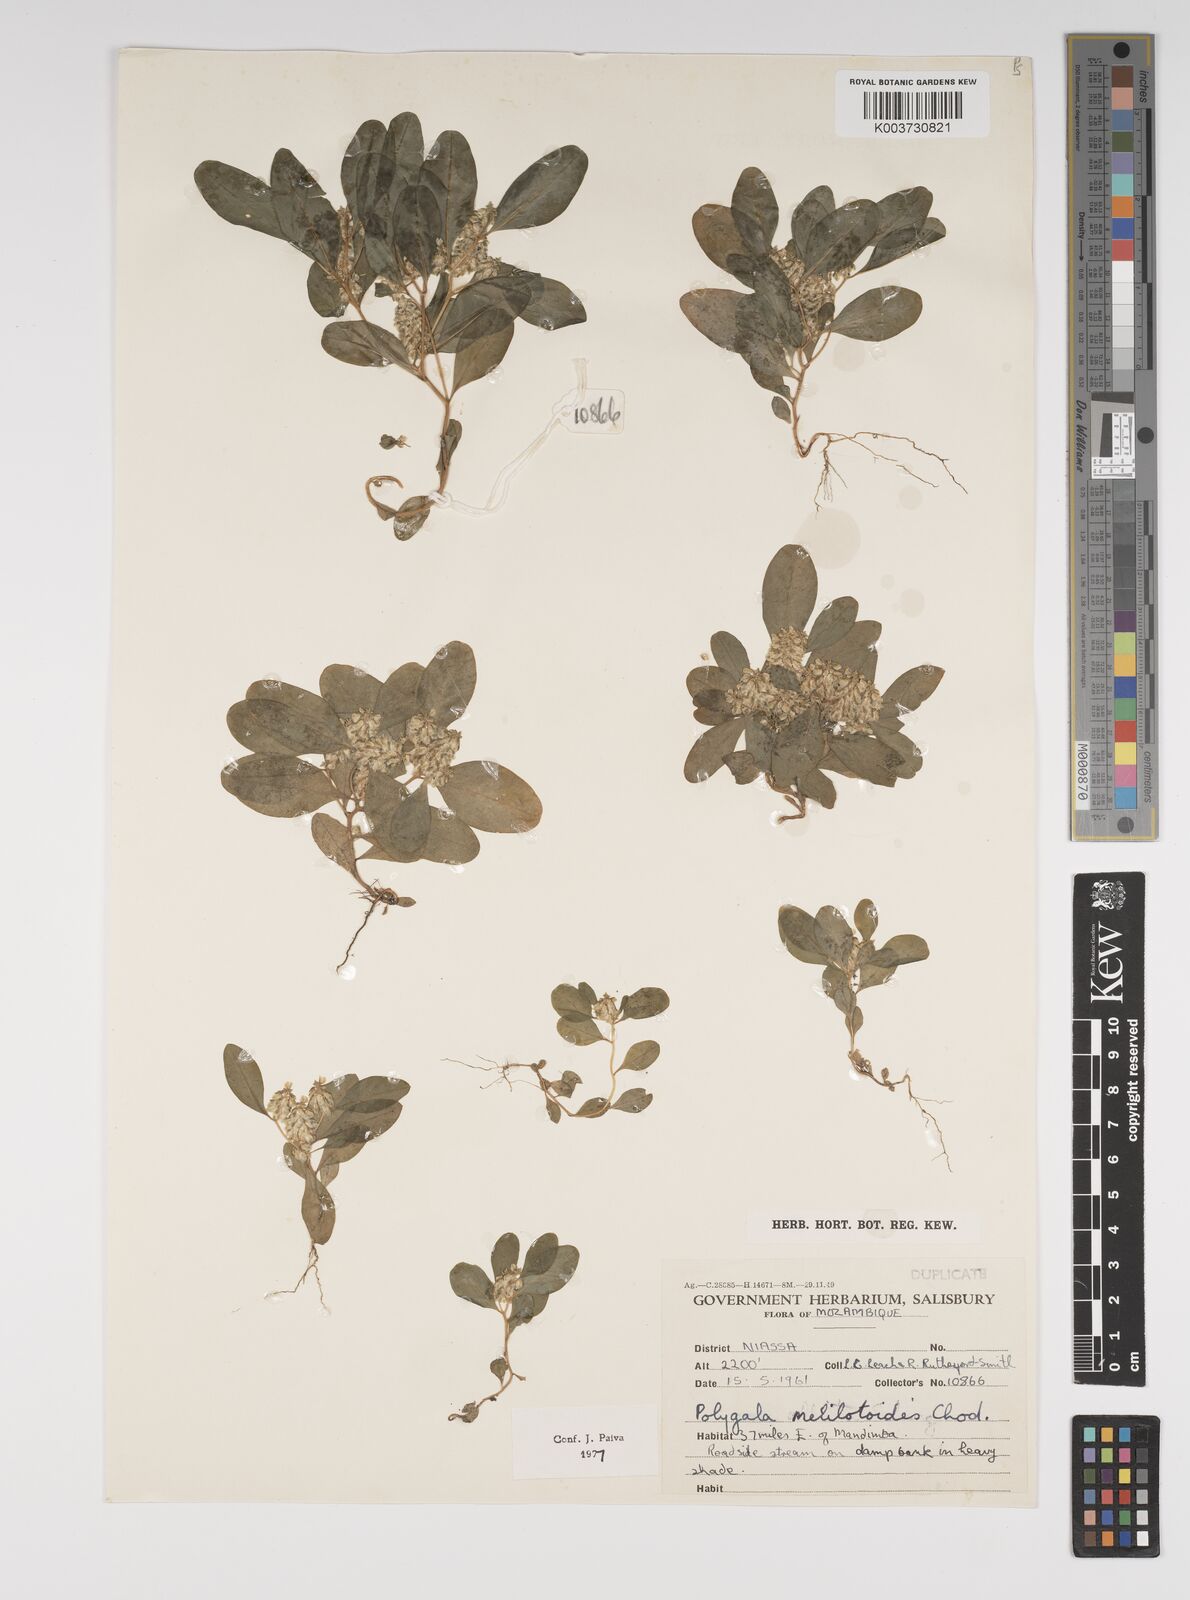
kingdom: Plantae
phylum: Tracheophyta
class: Magnoliopsida
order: Fabales
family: Polygalaceae
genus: Polygala
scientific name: Polygala melilotoides
